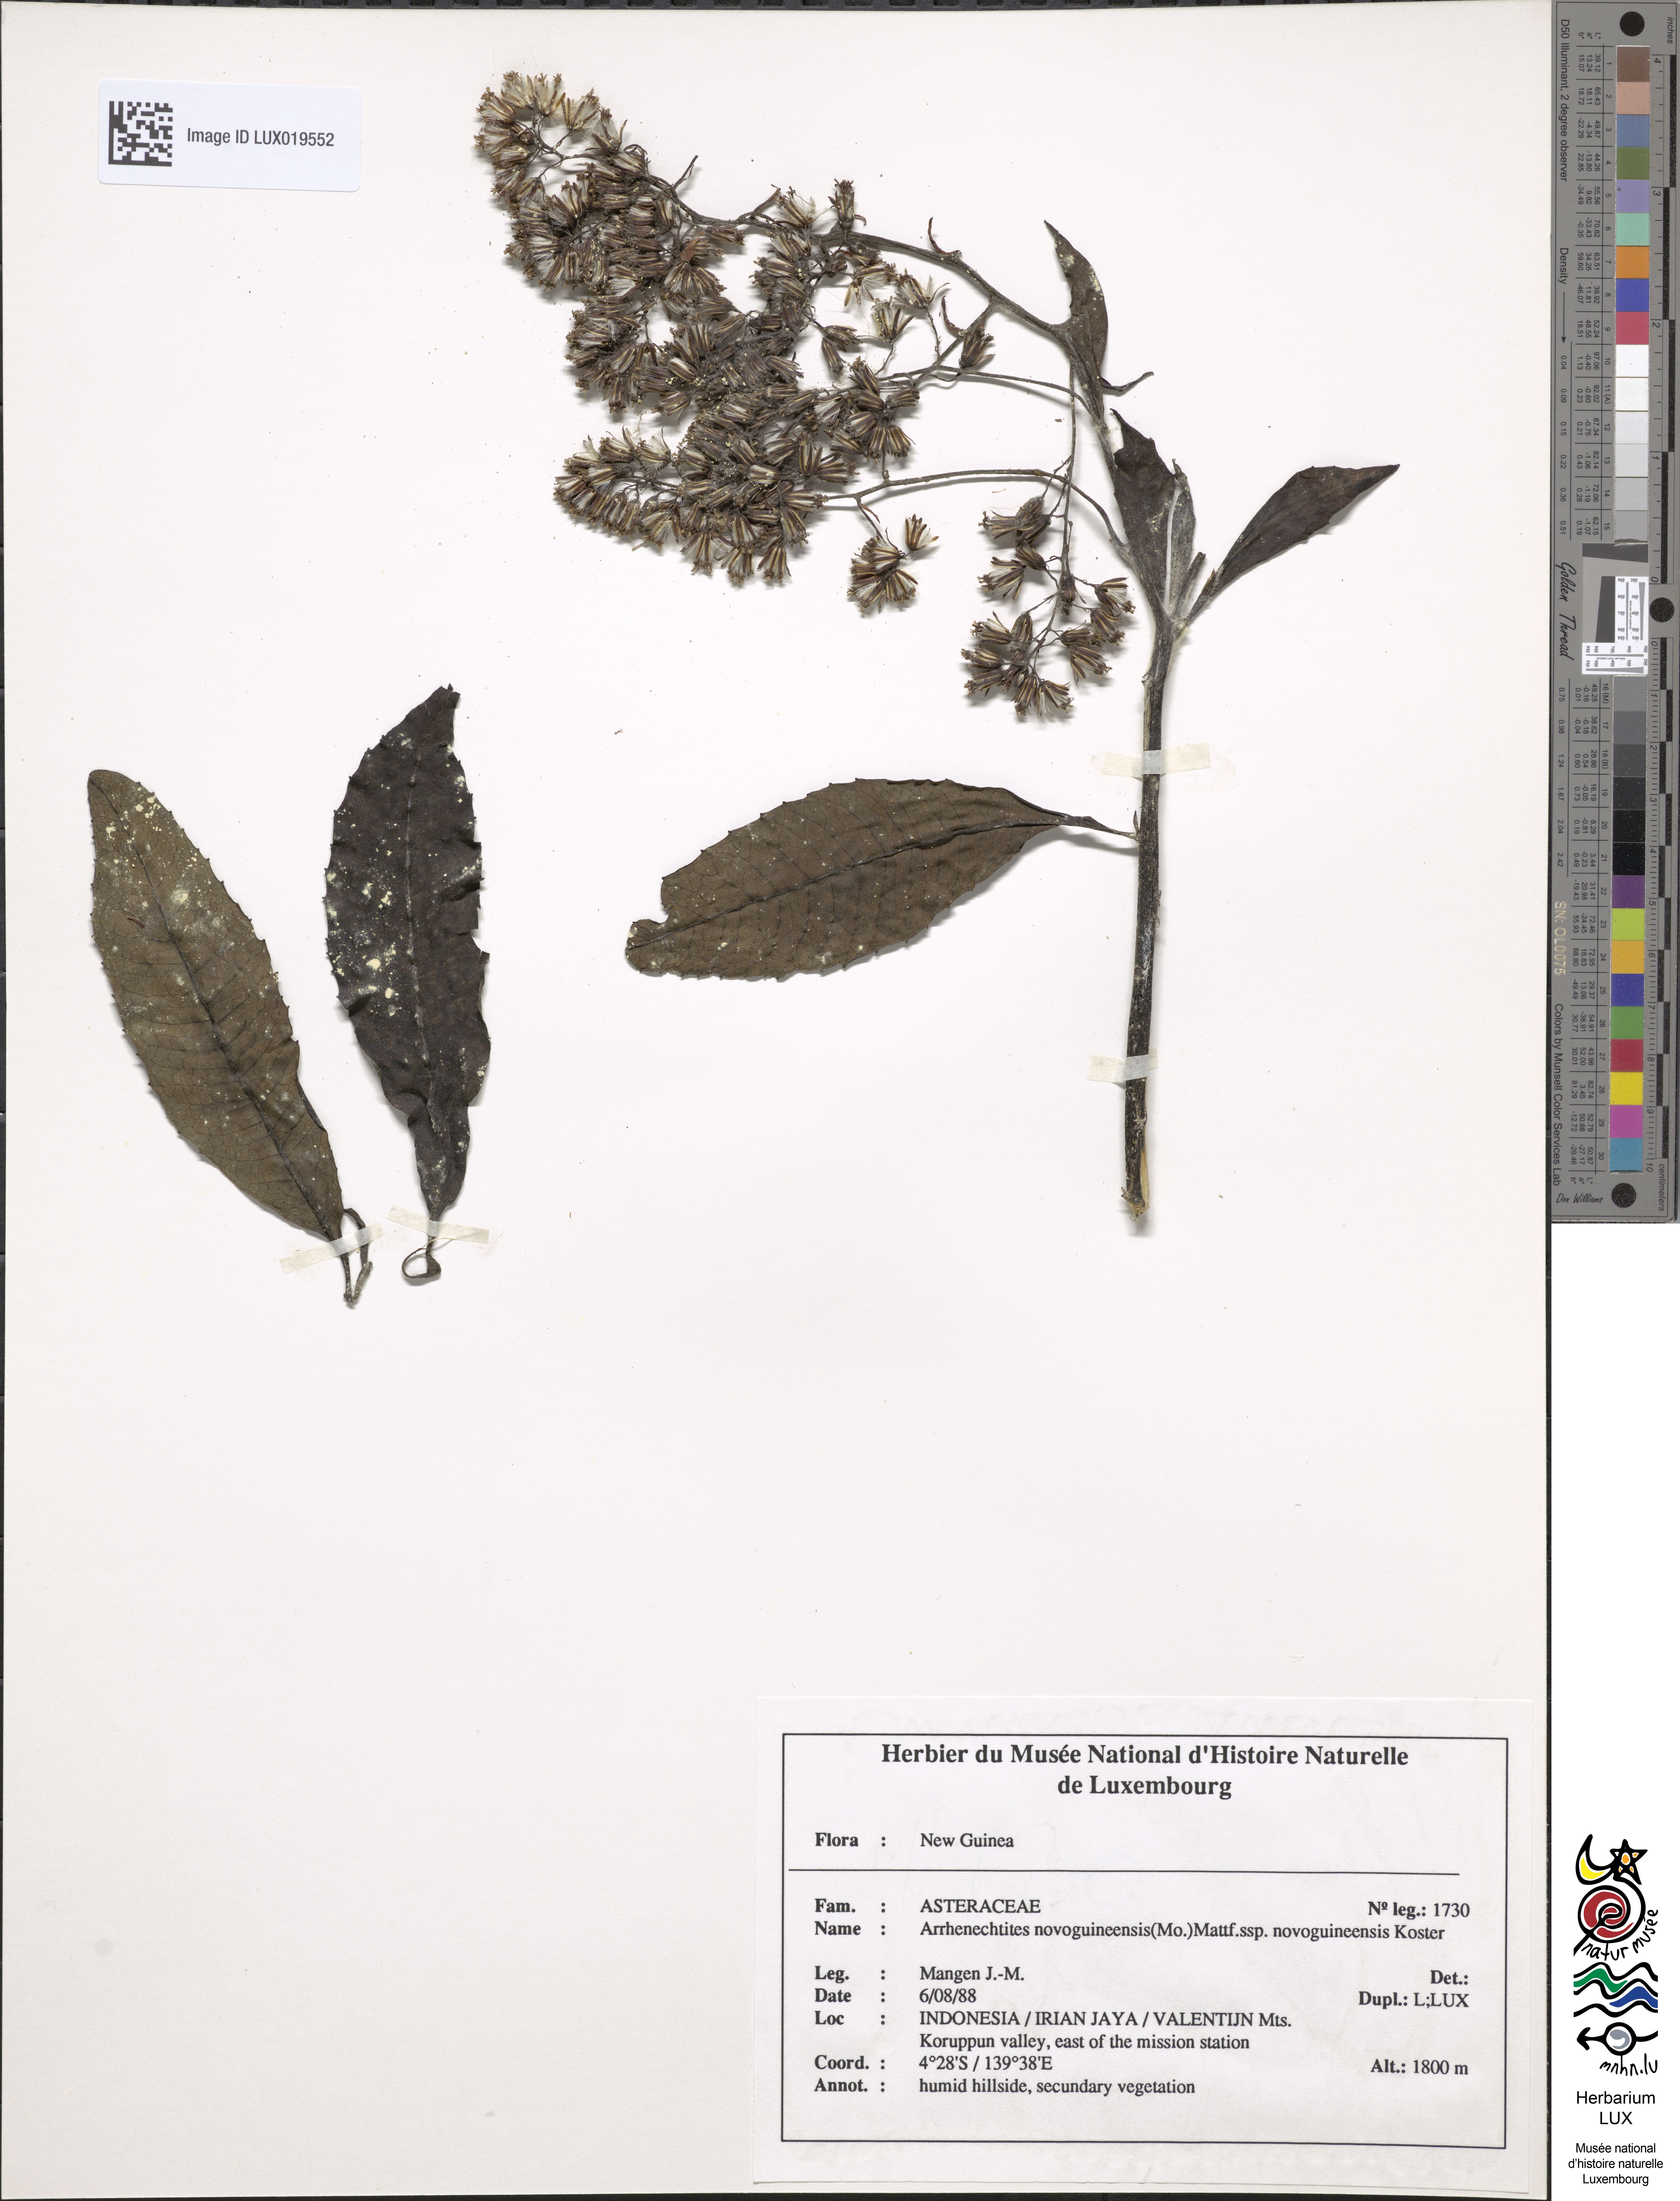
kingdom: Plantae
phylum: Tracheophyta
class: Magnoliopsida
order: Asterales
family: Asteraceae
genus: Arrhenechthites
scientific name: Arrhenechthites novoguineensis
